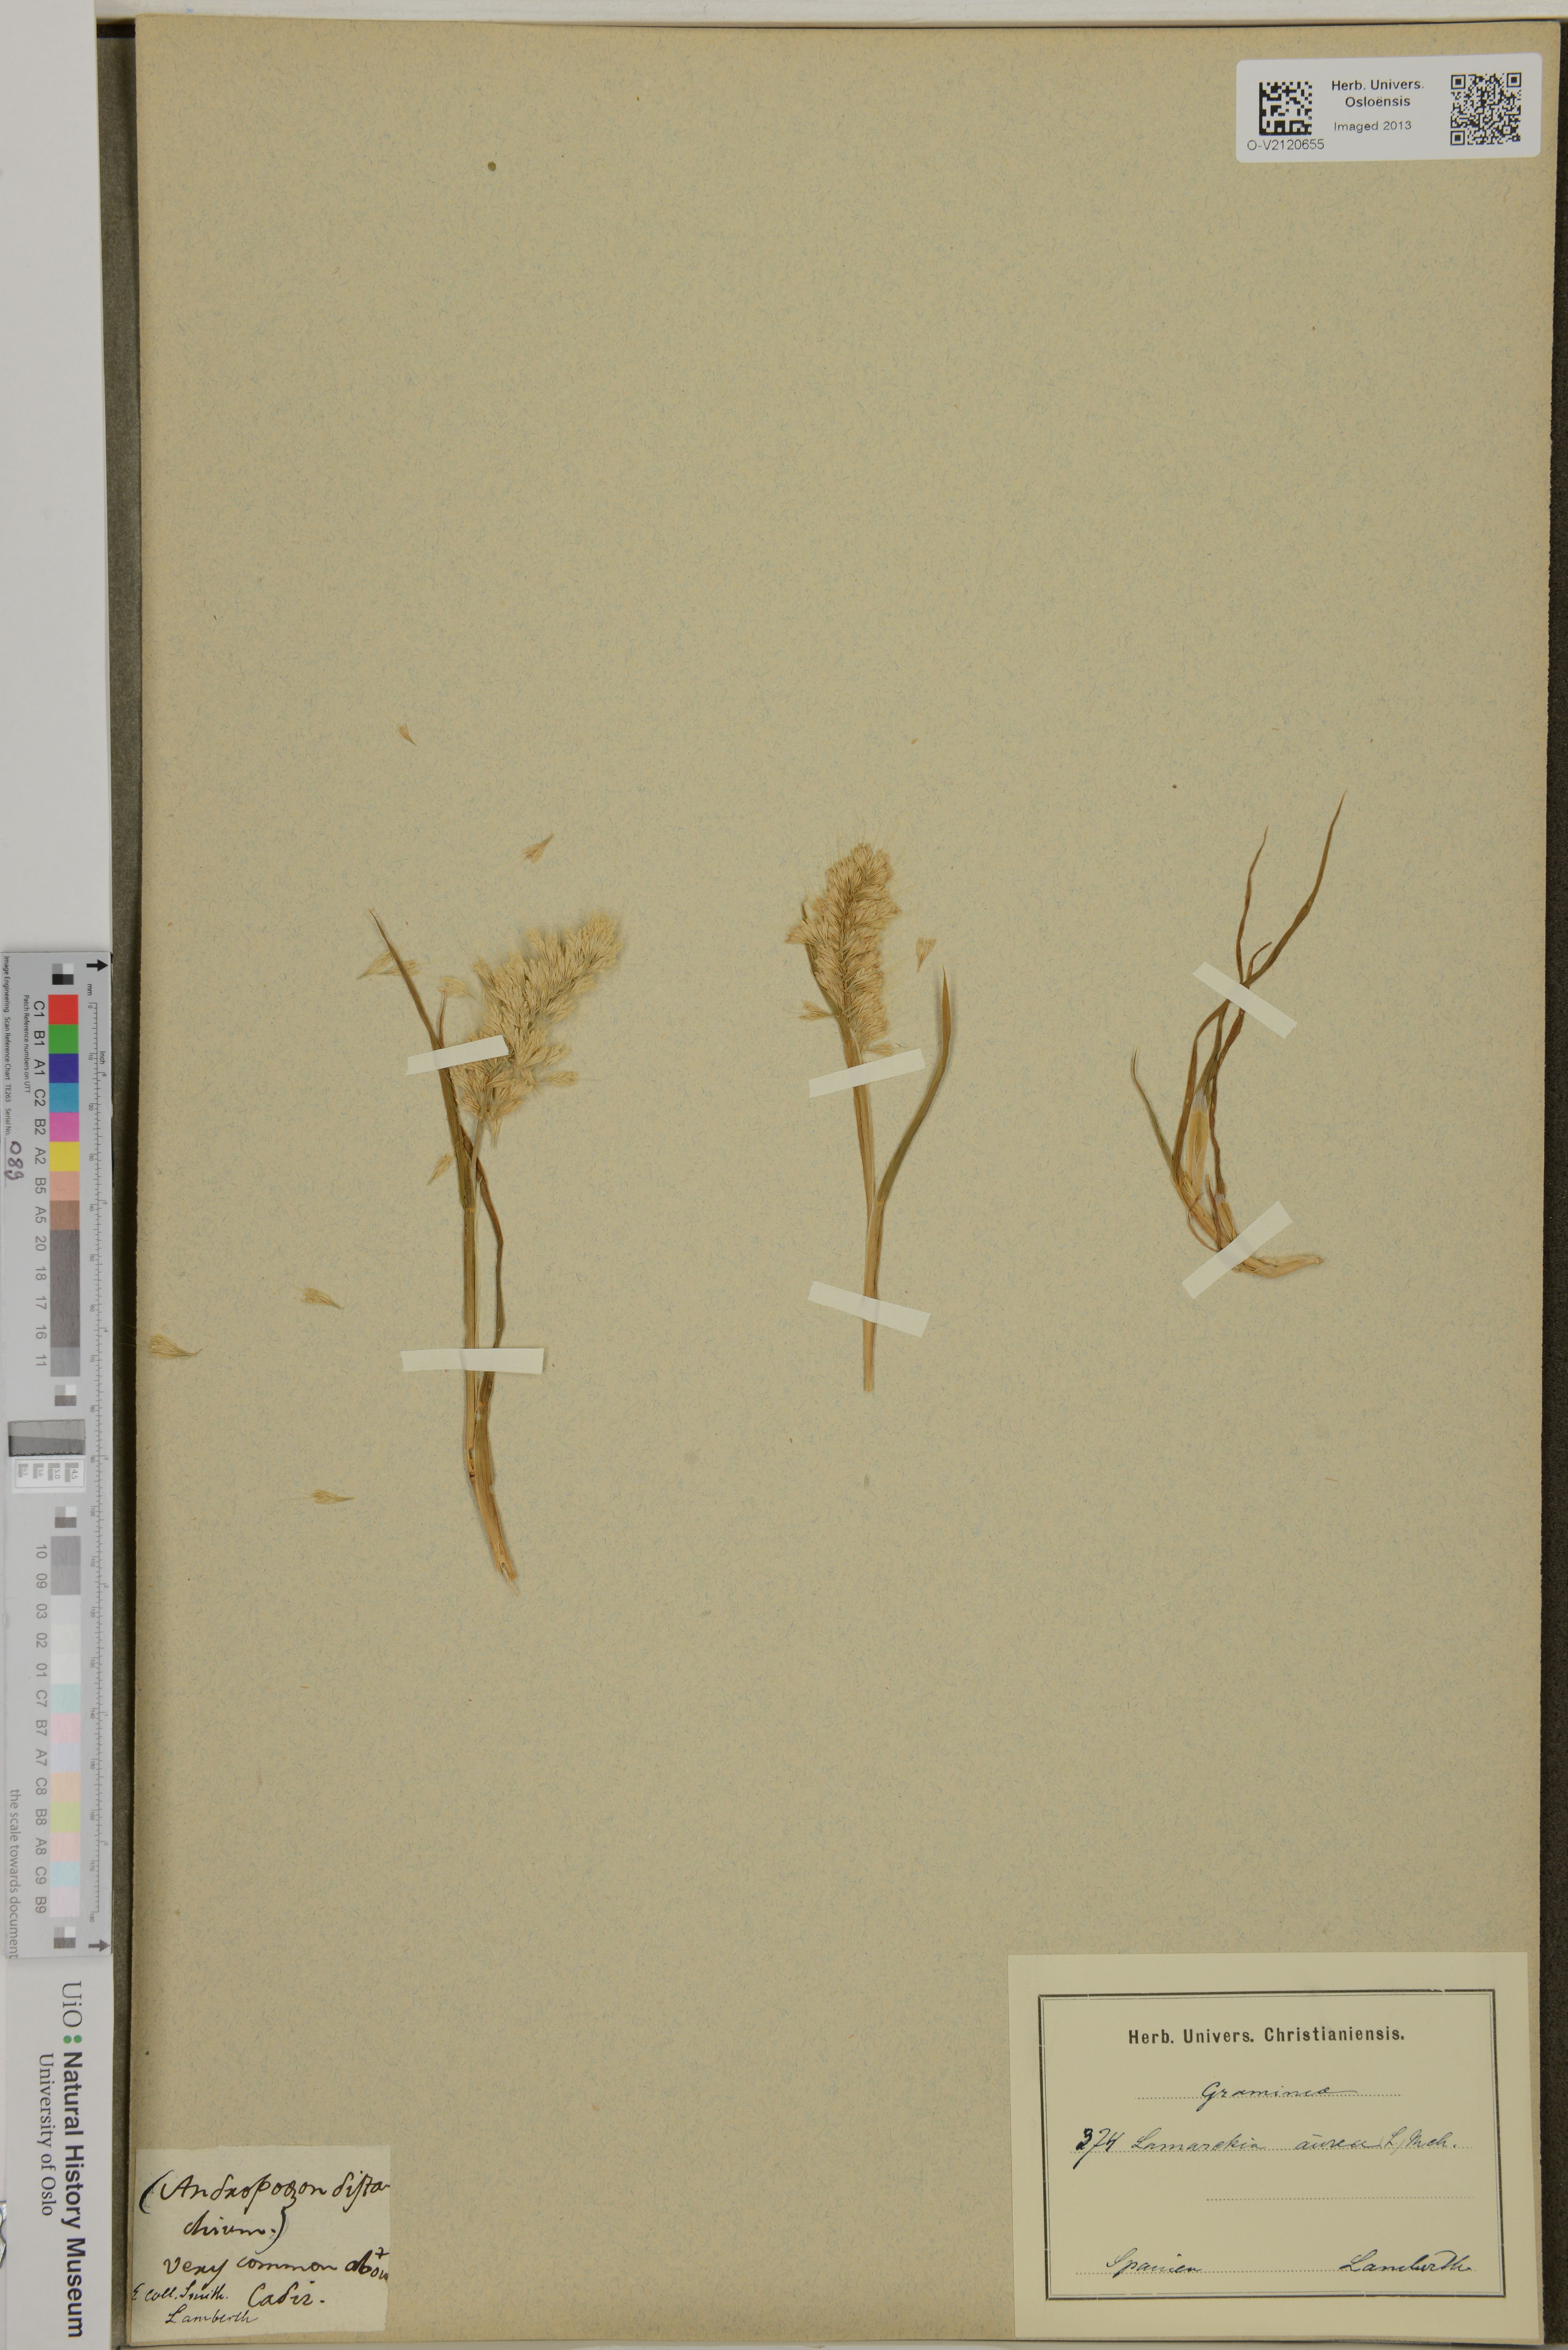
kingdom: Plantae
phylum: Tracheophyta
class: Liliopsida
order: Poales
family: Poaceae
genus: Lamarckia
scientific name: Lamarckia aurea
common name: Golden dog's-tail
